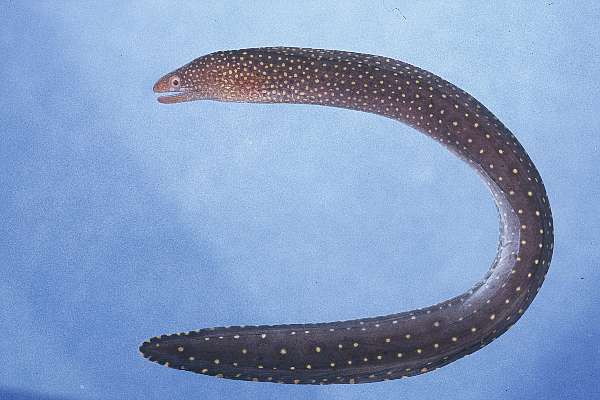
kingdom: Animalia
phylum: Chordata
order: Anguilliformes
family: Muraenidae
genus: Gymnothorax
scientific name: Gymnothorax eurostus
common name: Stout moray
